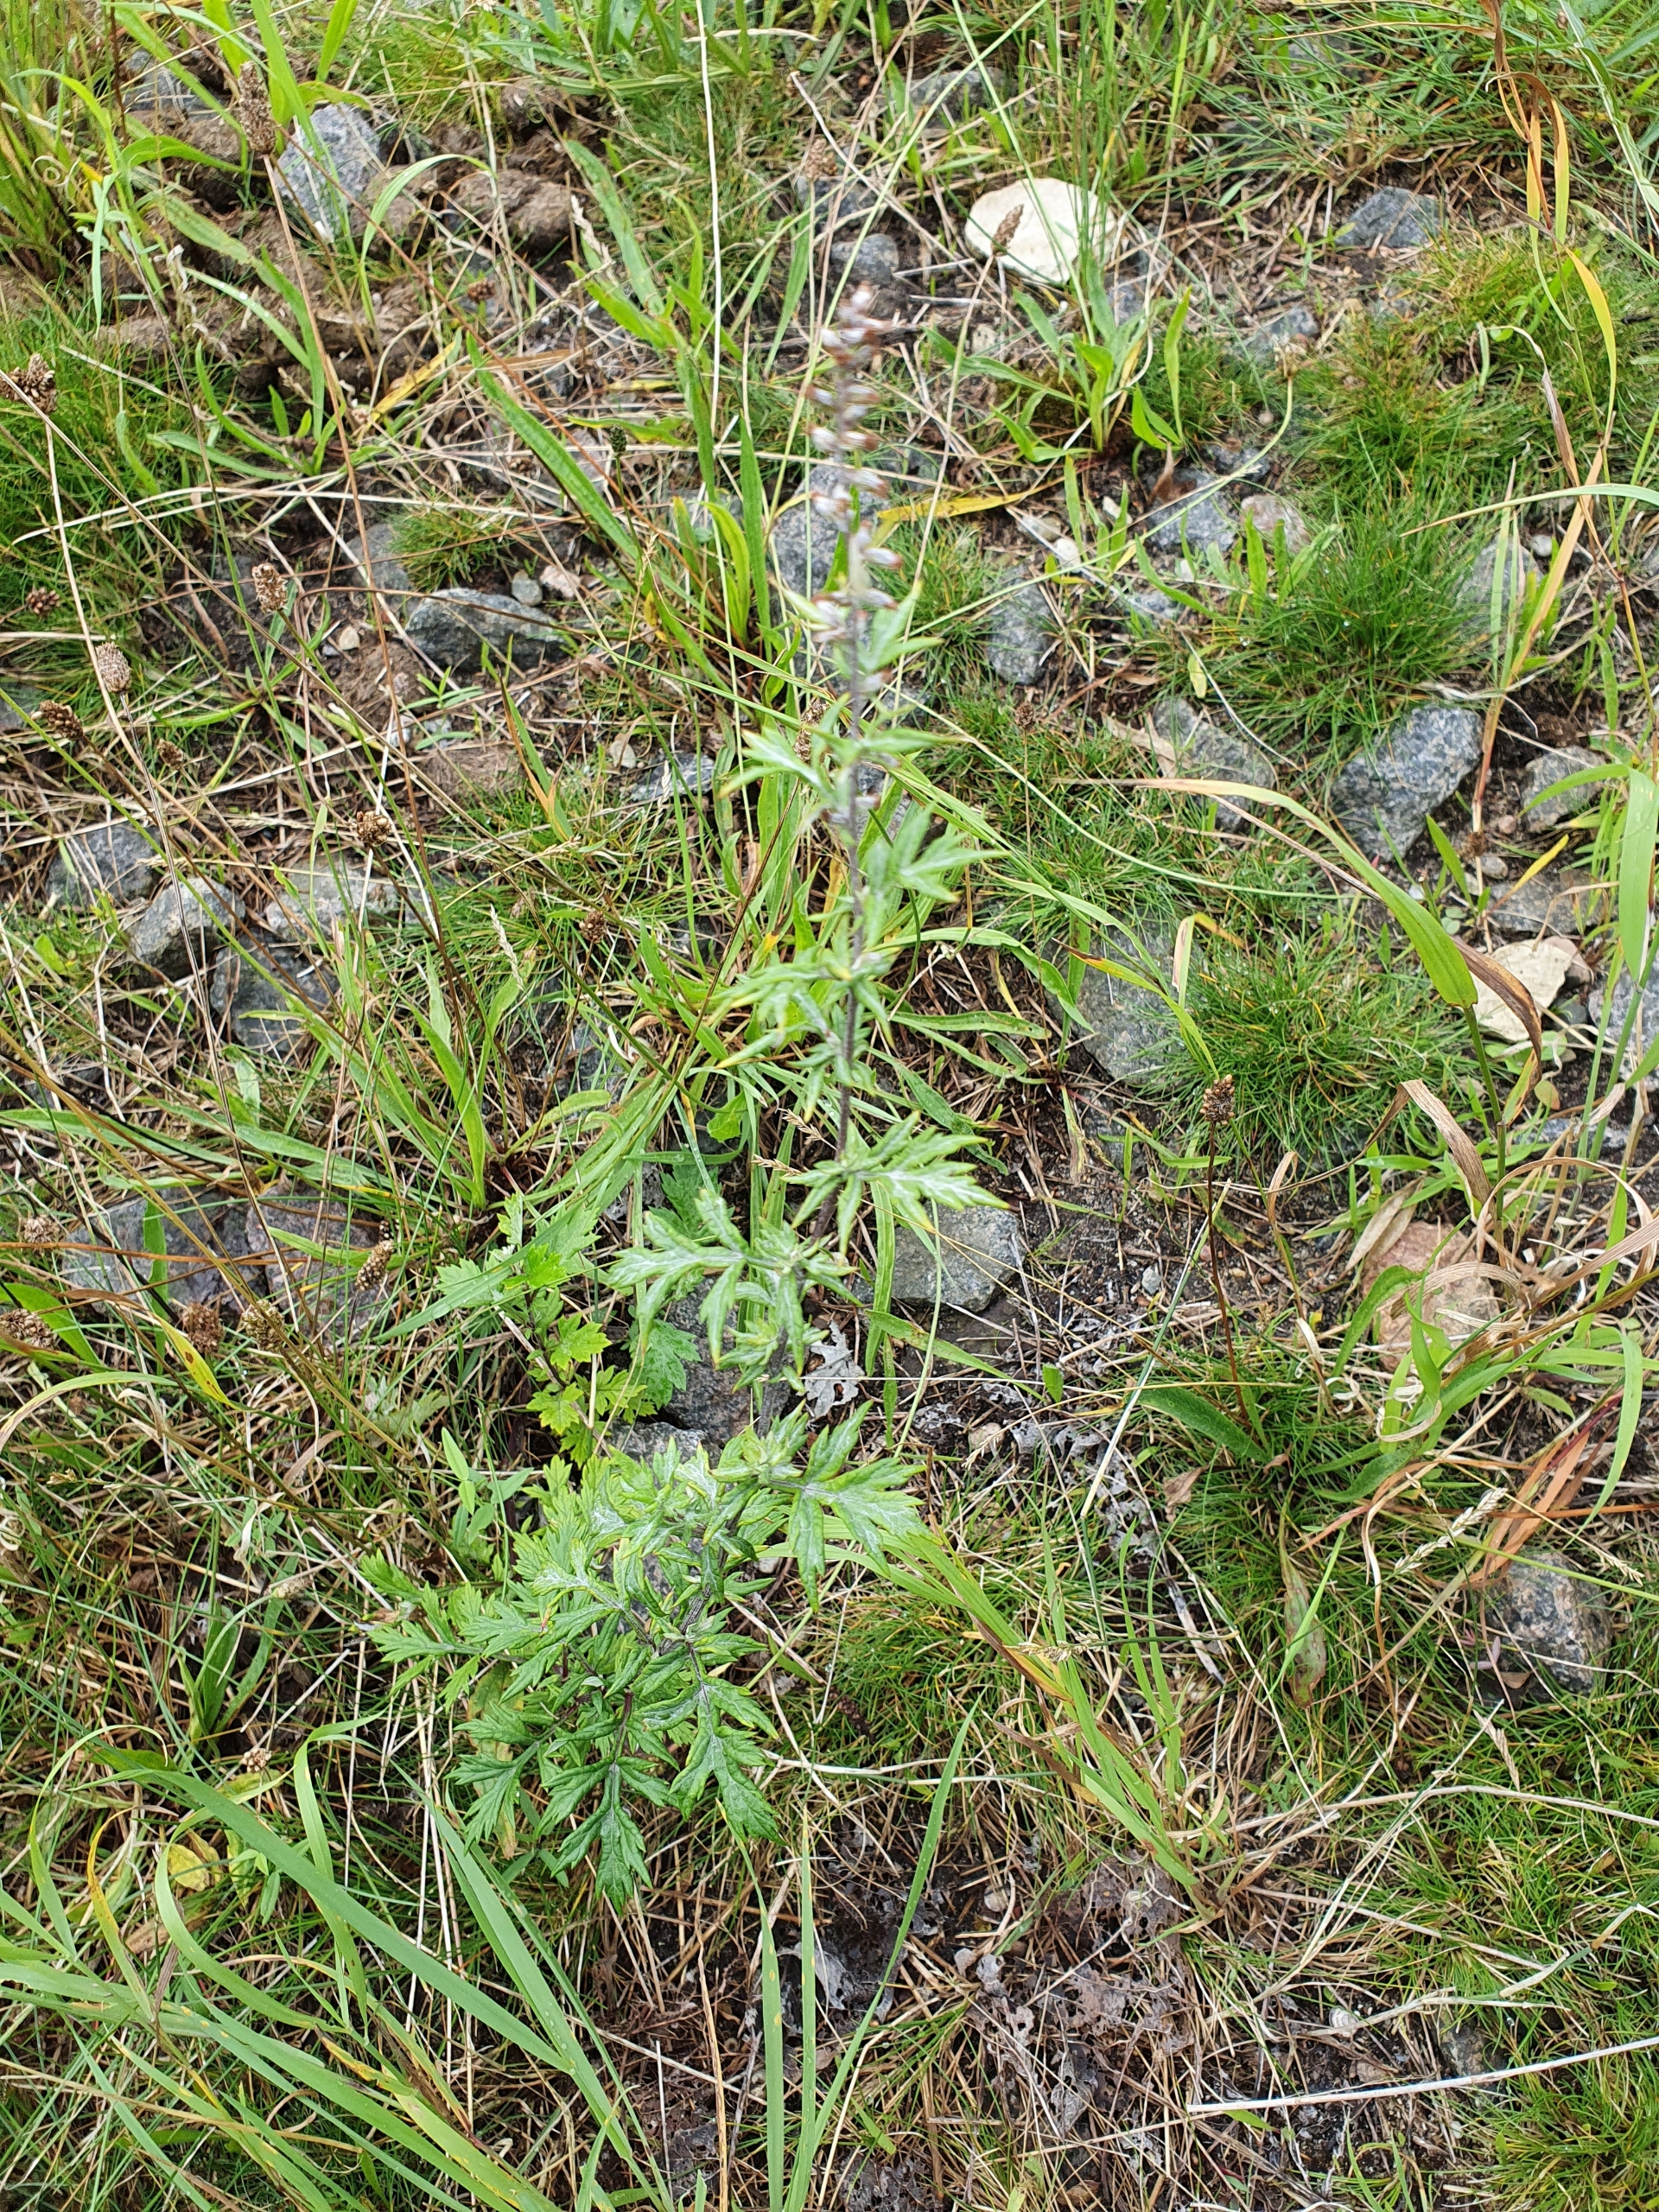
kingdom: Plantae
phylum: Tracheophyta
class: Magnoliopsida
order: Asterales
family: Asteraceae
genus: Artemisia
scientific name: Artemisia vulgaris
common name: Grå-bynke
